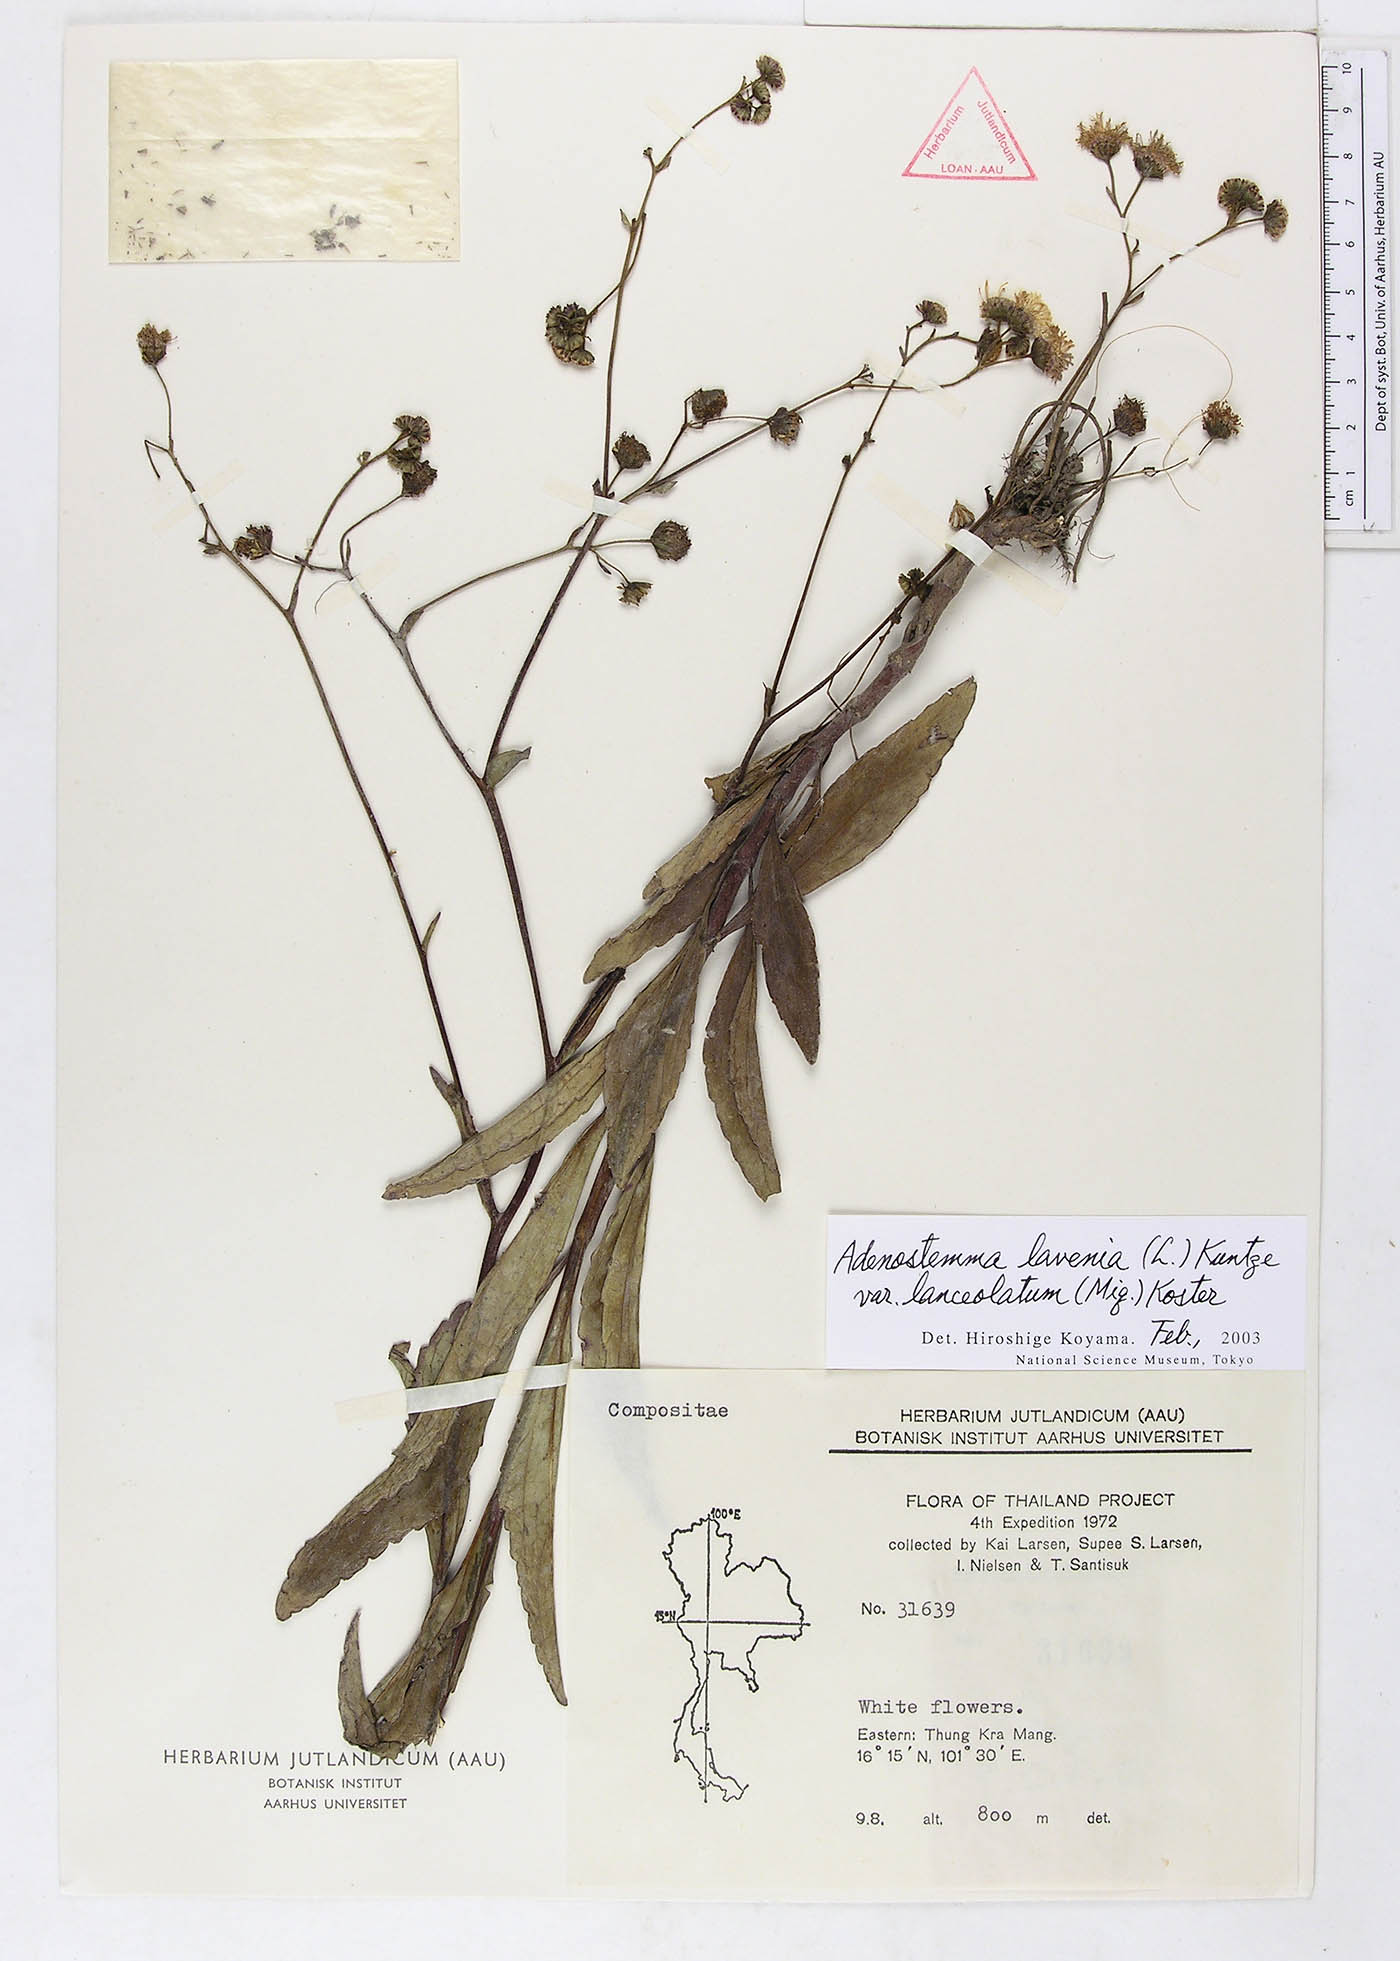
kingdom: Plantae
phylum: Tracheophyta
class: Magnoliopsida
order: Asterales
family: Asteraceae
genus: Adenostemma
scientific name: Adenostemma lavenia
